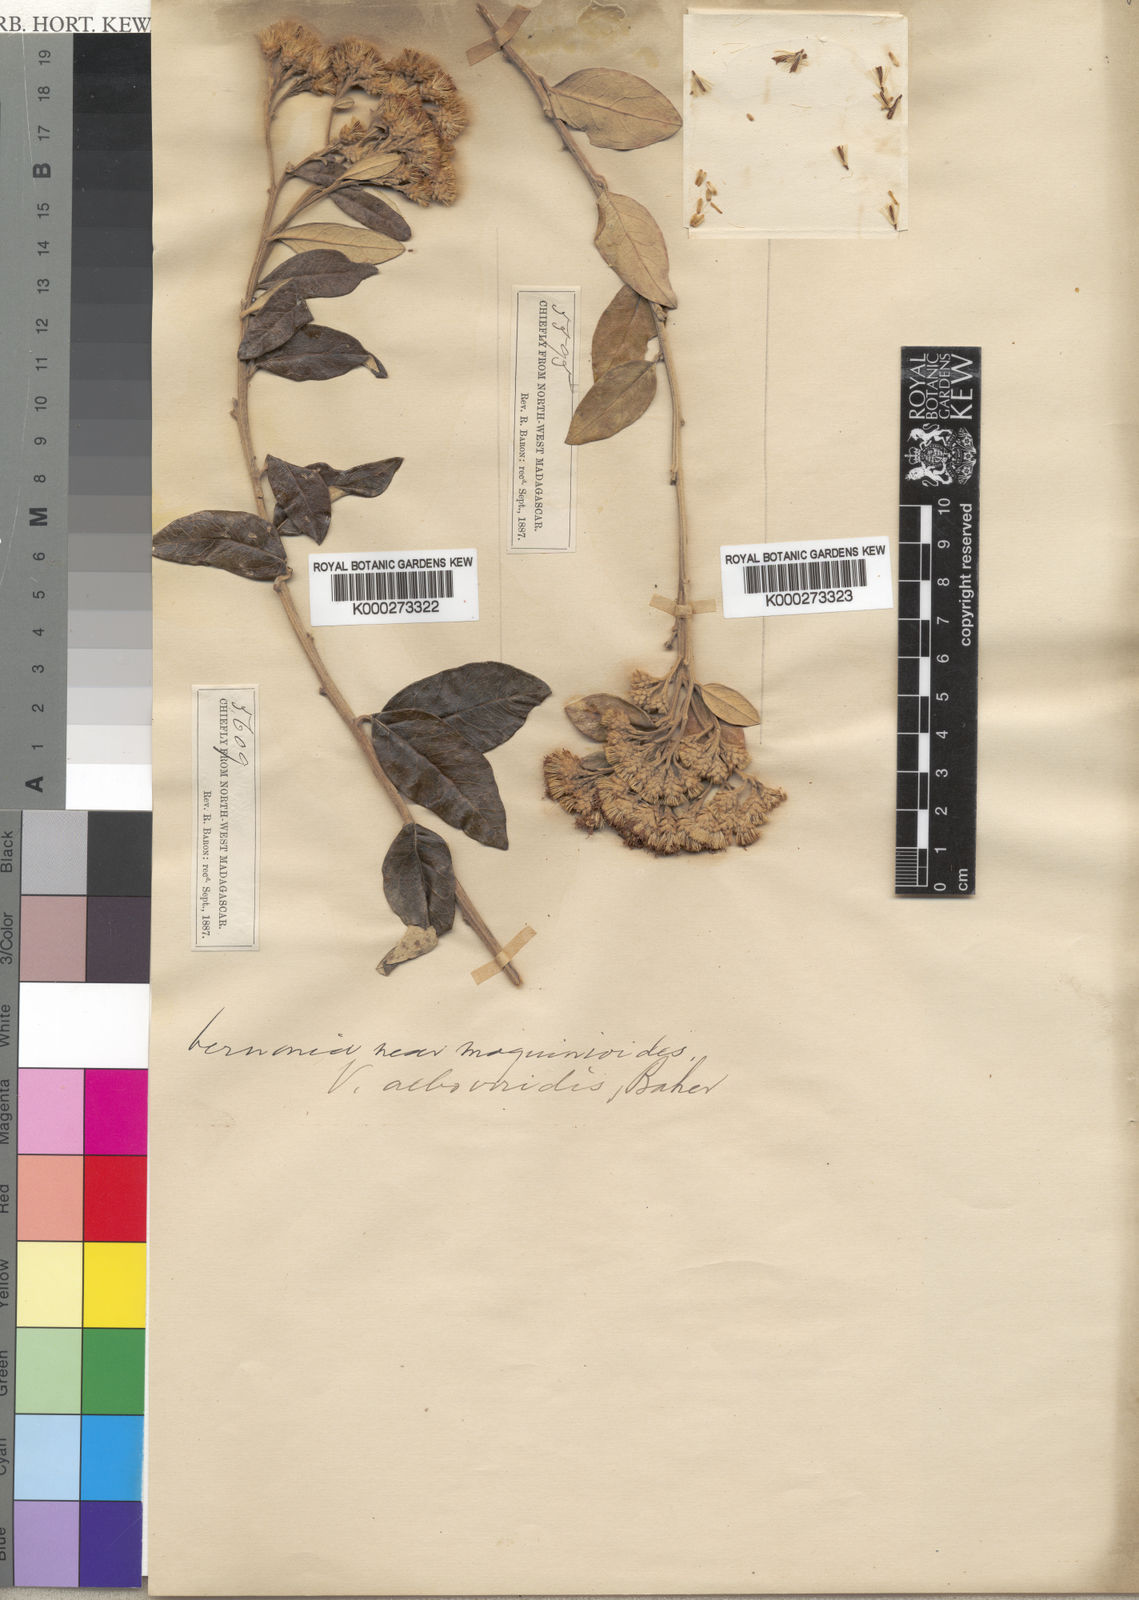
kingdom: Plantae
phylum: Tracheophyta
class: Magnoliopsida
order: Asterales
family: Asteraceae
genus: Distephanus
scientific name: Distephanus garnierianus
